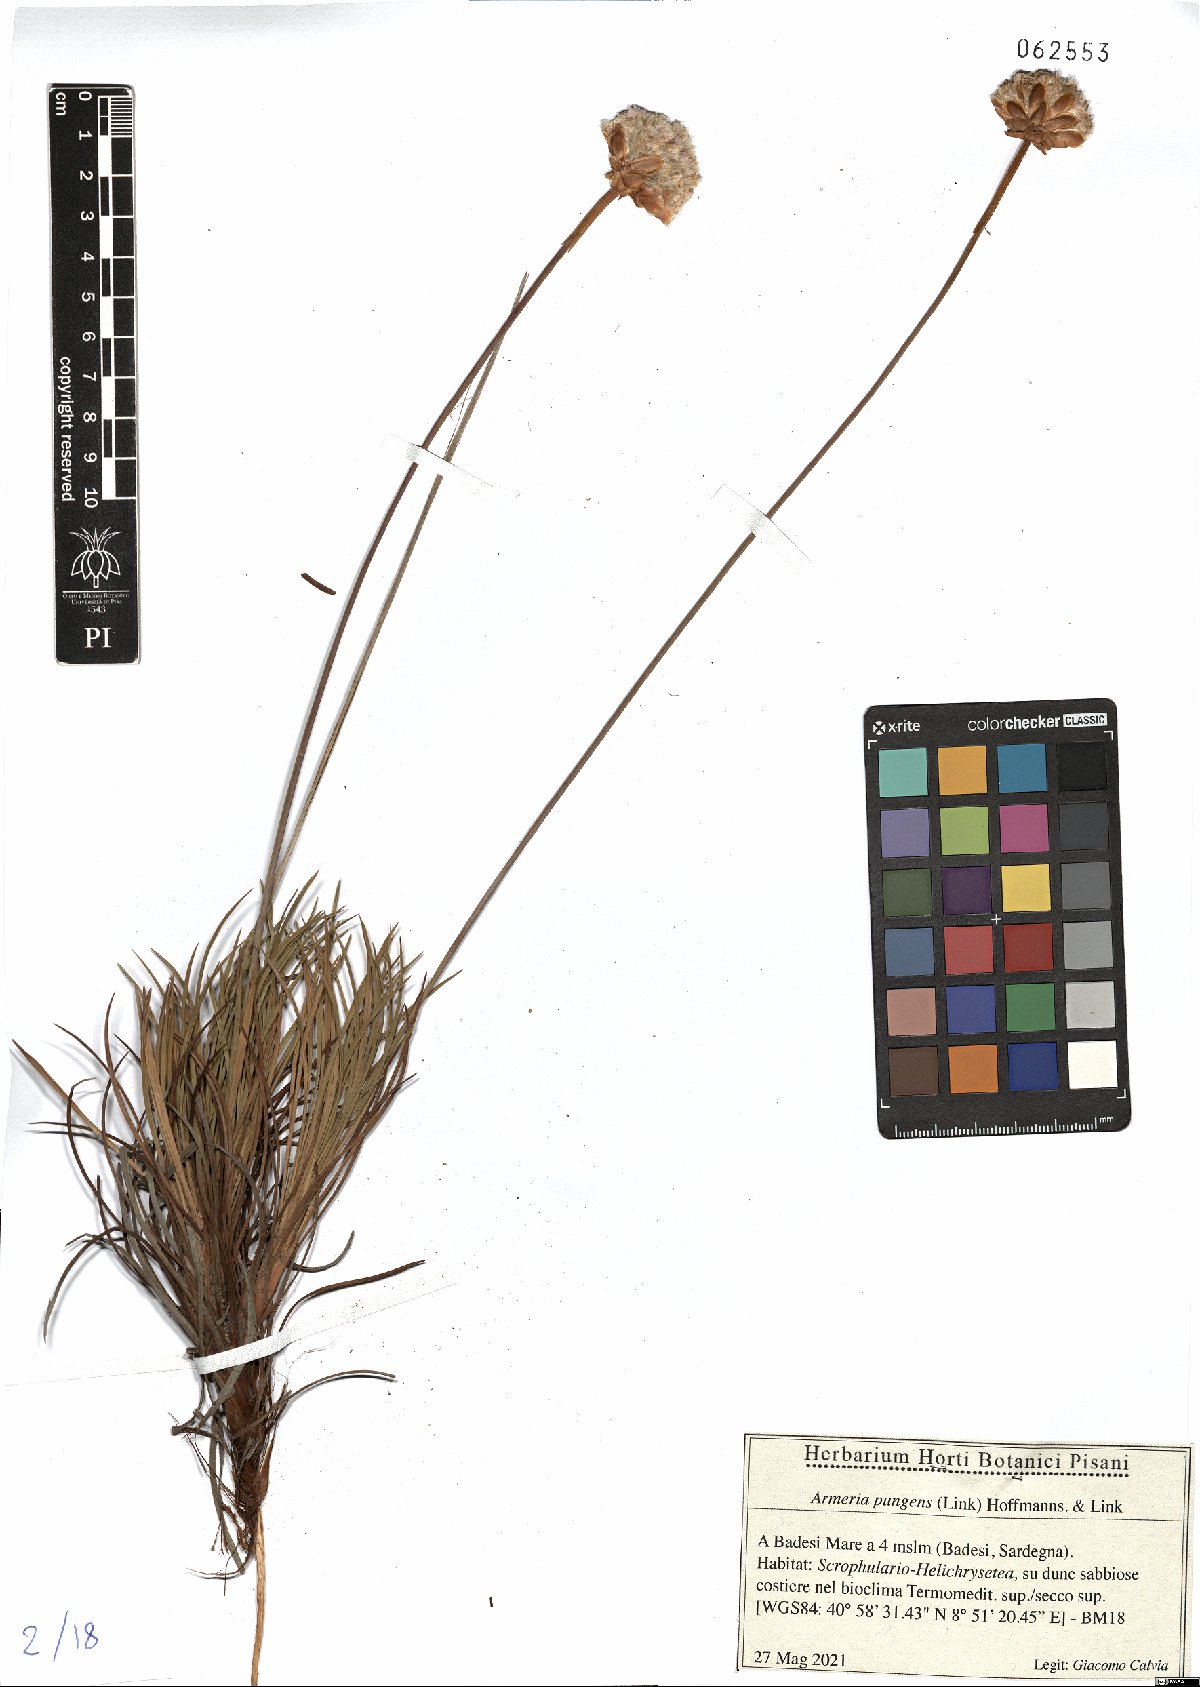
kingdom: Plantae
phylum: Tracheophyta
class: Magnoliopsida
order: Caryophyllales
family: Plumbaginaceae
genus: Armeria
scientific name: Armeria pungens
